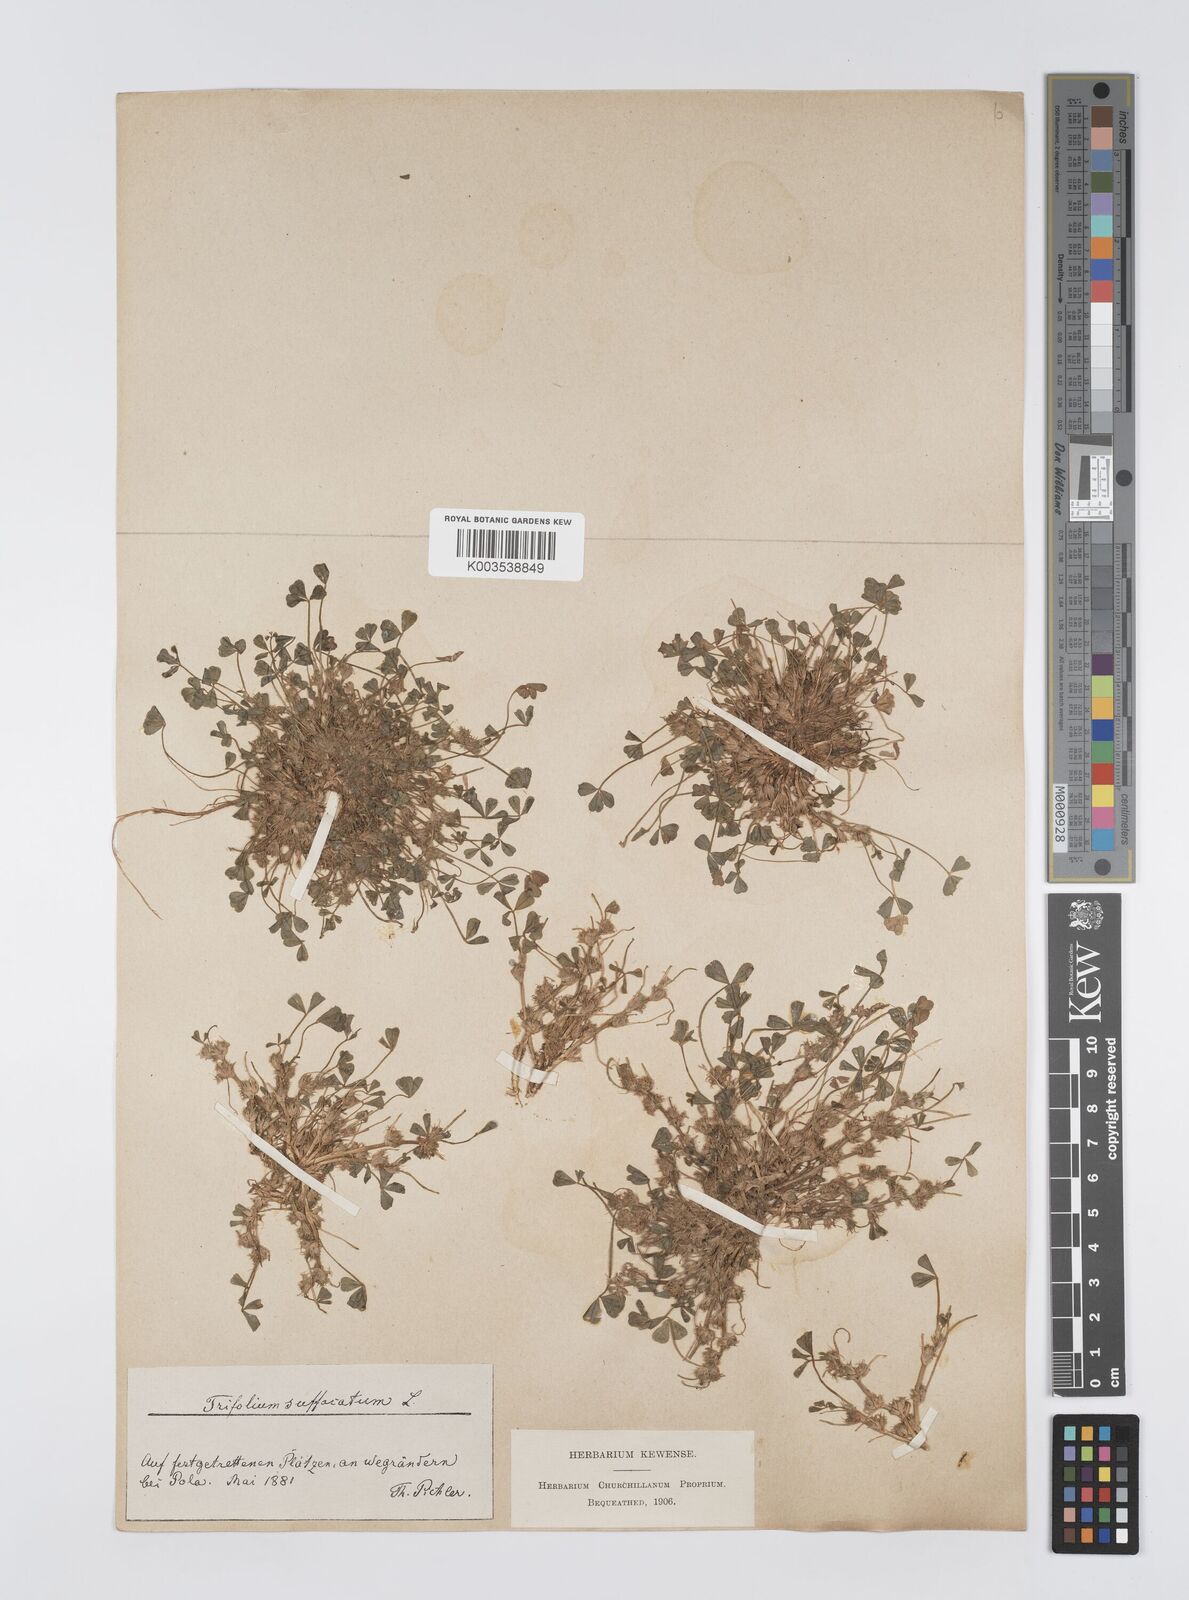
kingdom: Plantae
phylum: Tracheophyta
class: Magnoliopsida
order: Fabales
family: Fabaceae
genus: Trifolium
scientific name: Trifolium suffocatum
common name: Suffocated clover
